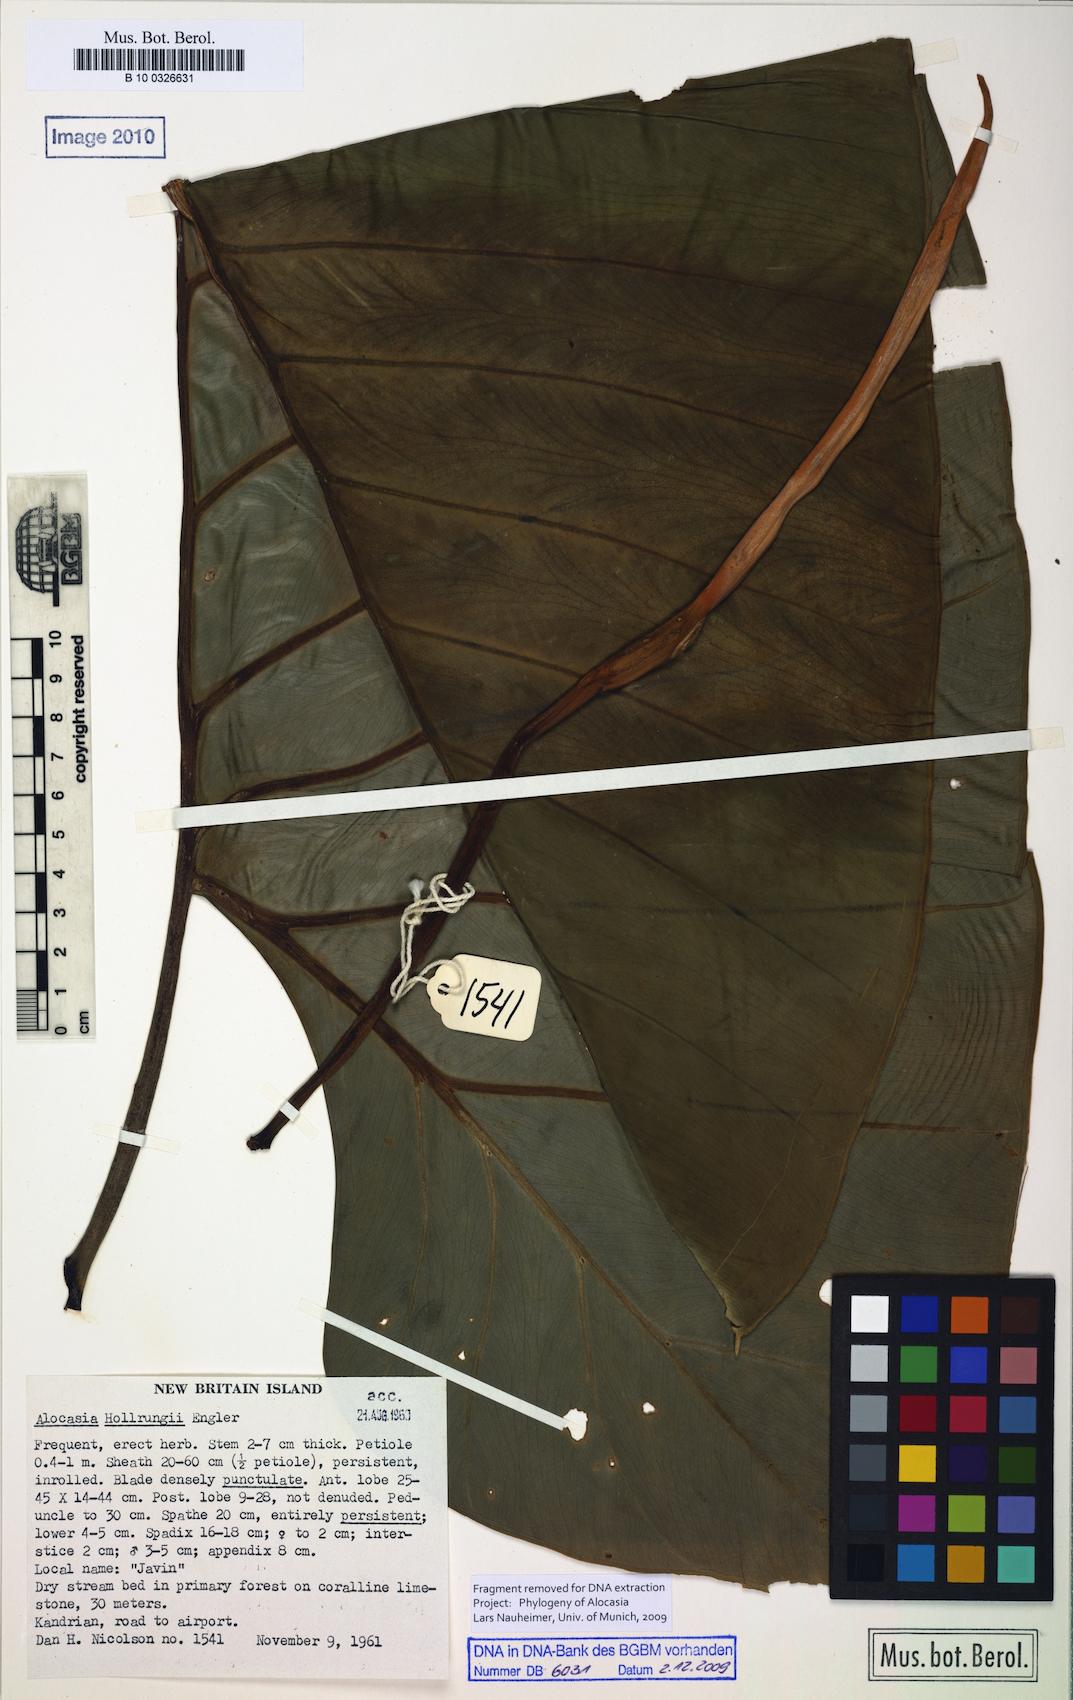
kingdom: Plantae
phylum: Tracheophyta
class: Liliopsida
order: Alismatales
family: Araceae
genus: Alocasia
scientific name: Alocasia hollrungii
